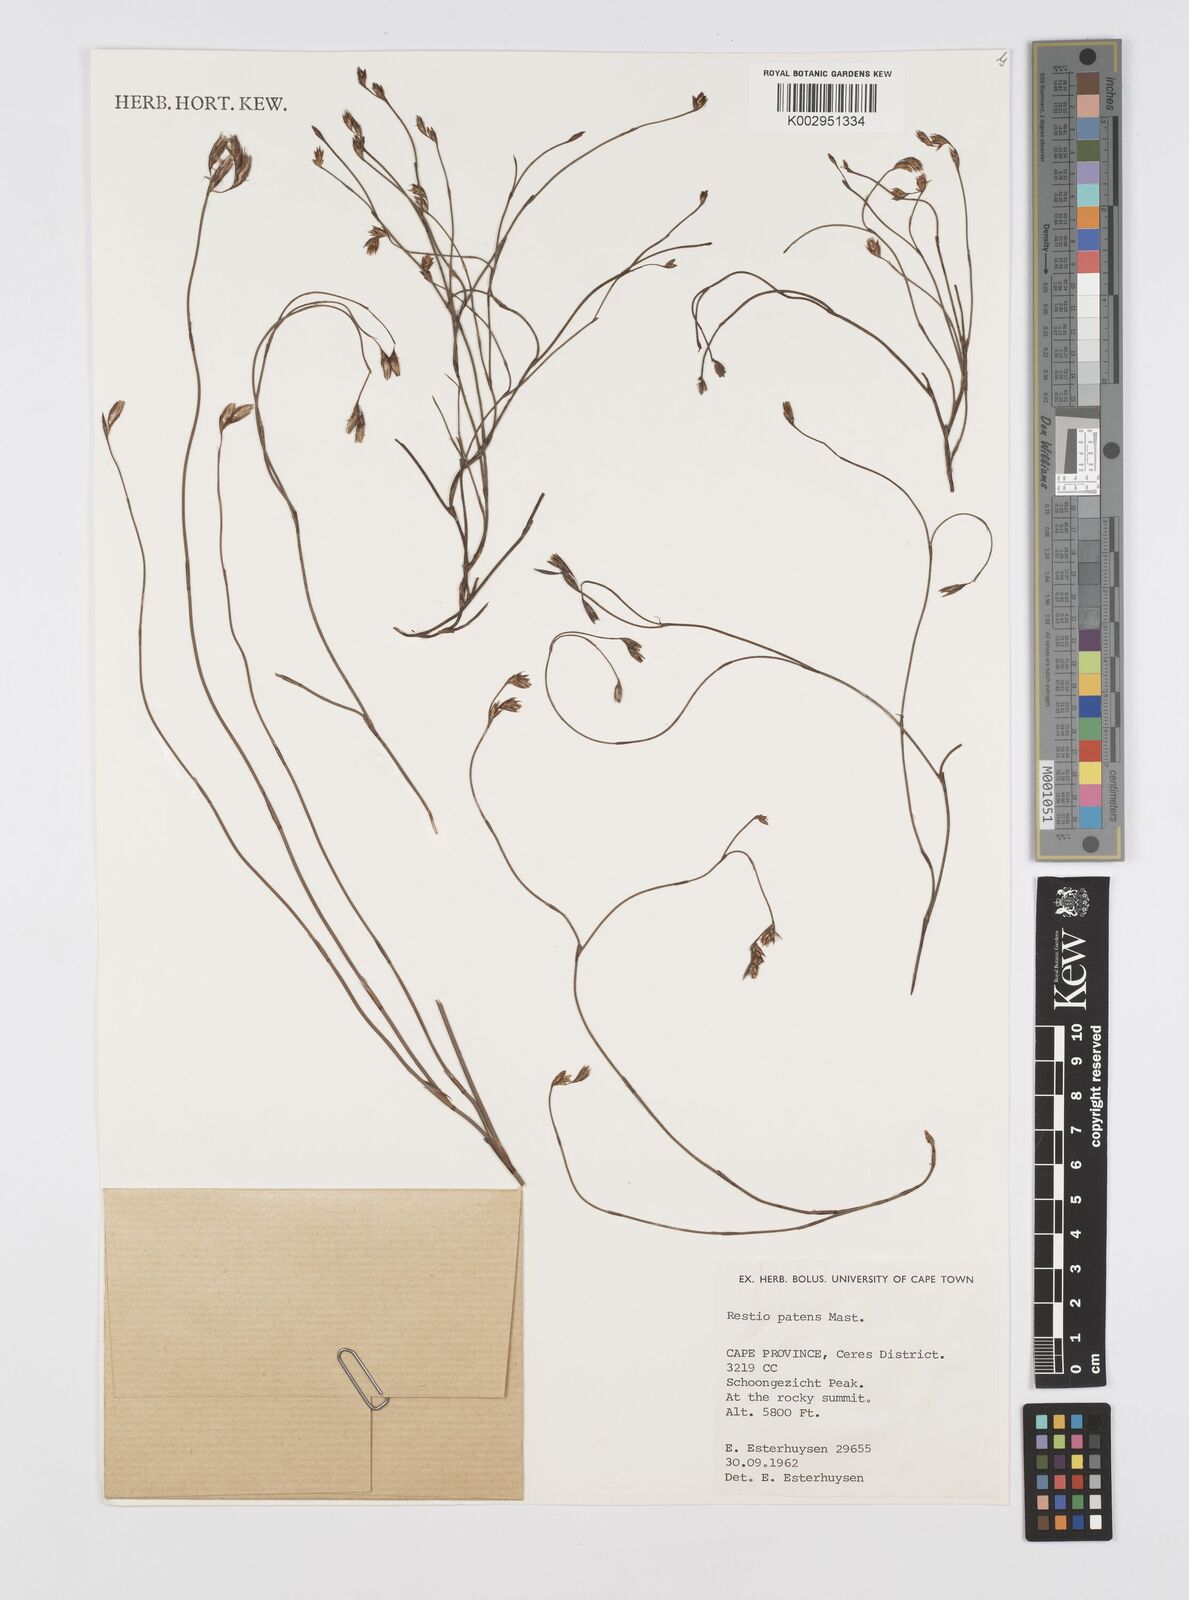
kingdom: Plantae
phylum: Tracheophyta
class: Liliopsida
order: Poales
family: Restionaceae
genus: Restio
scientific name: Restio patens
